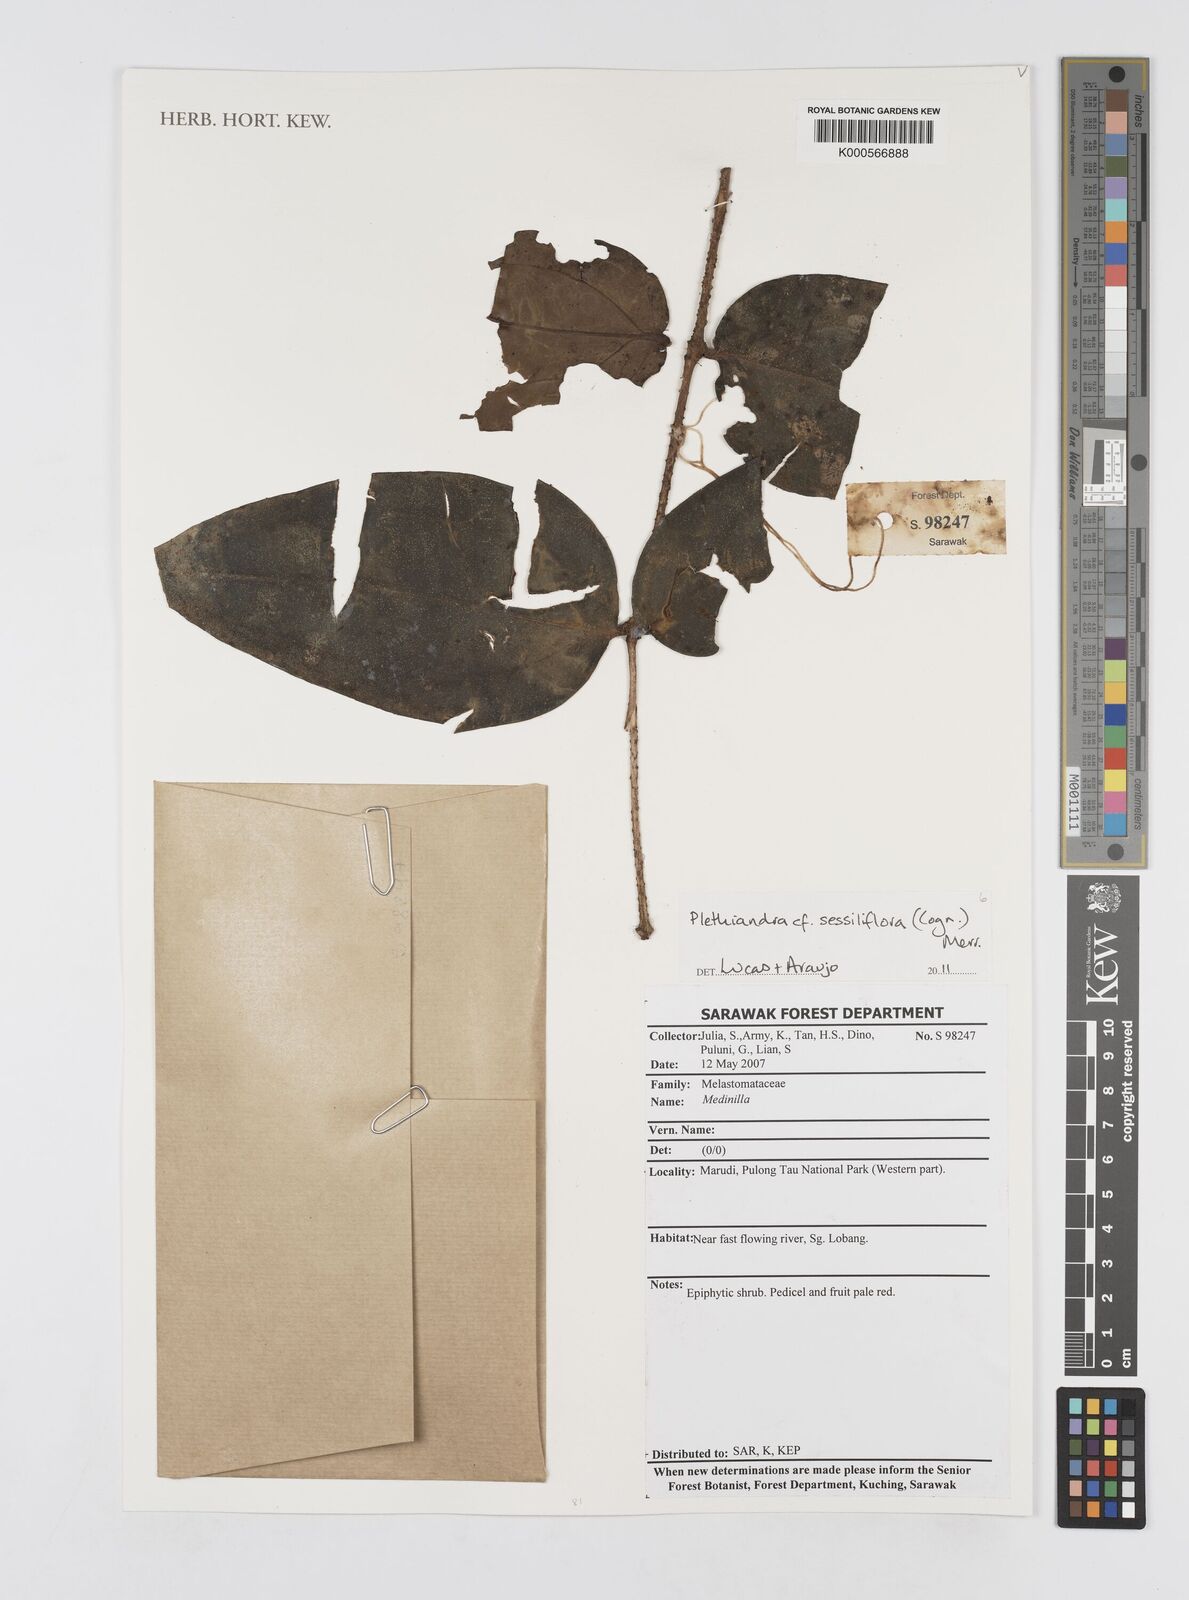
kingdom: Plantae
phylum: Tracheophyta
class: Magnoliopsida
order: Myrtales
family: Melastomataceae
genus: Plethiandra
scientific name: Plethiandra sessiliflora
